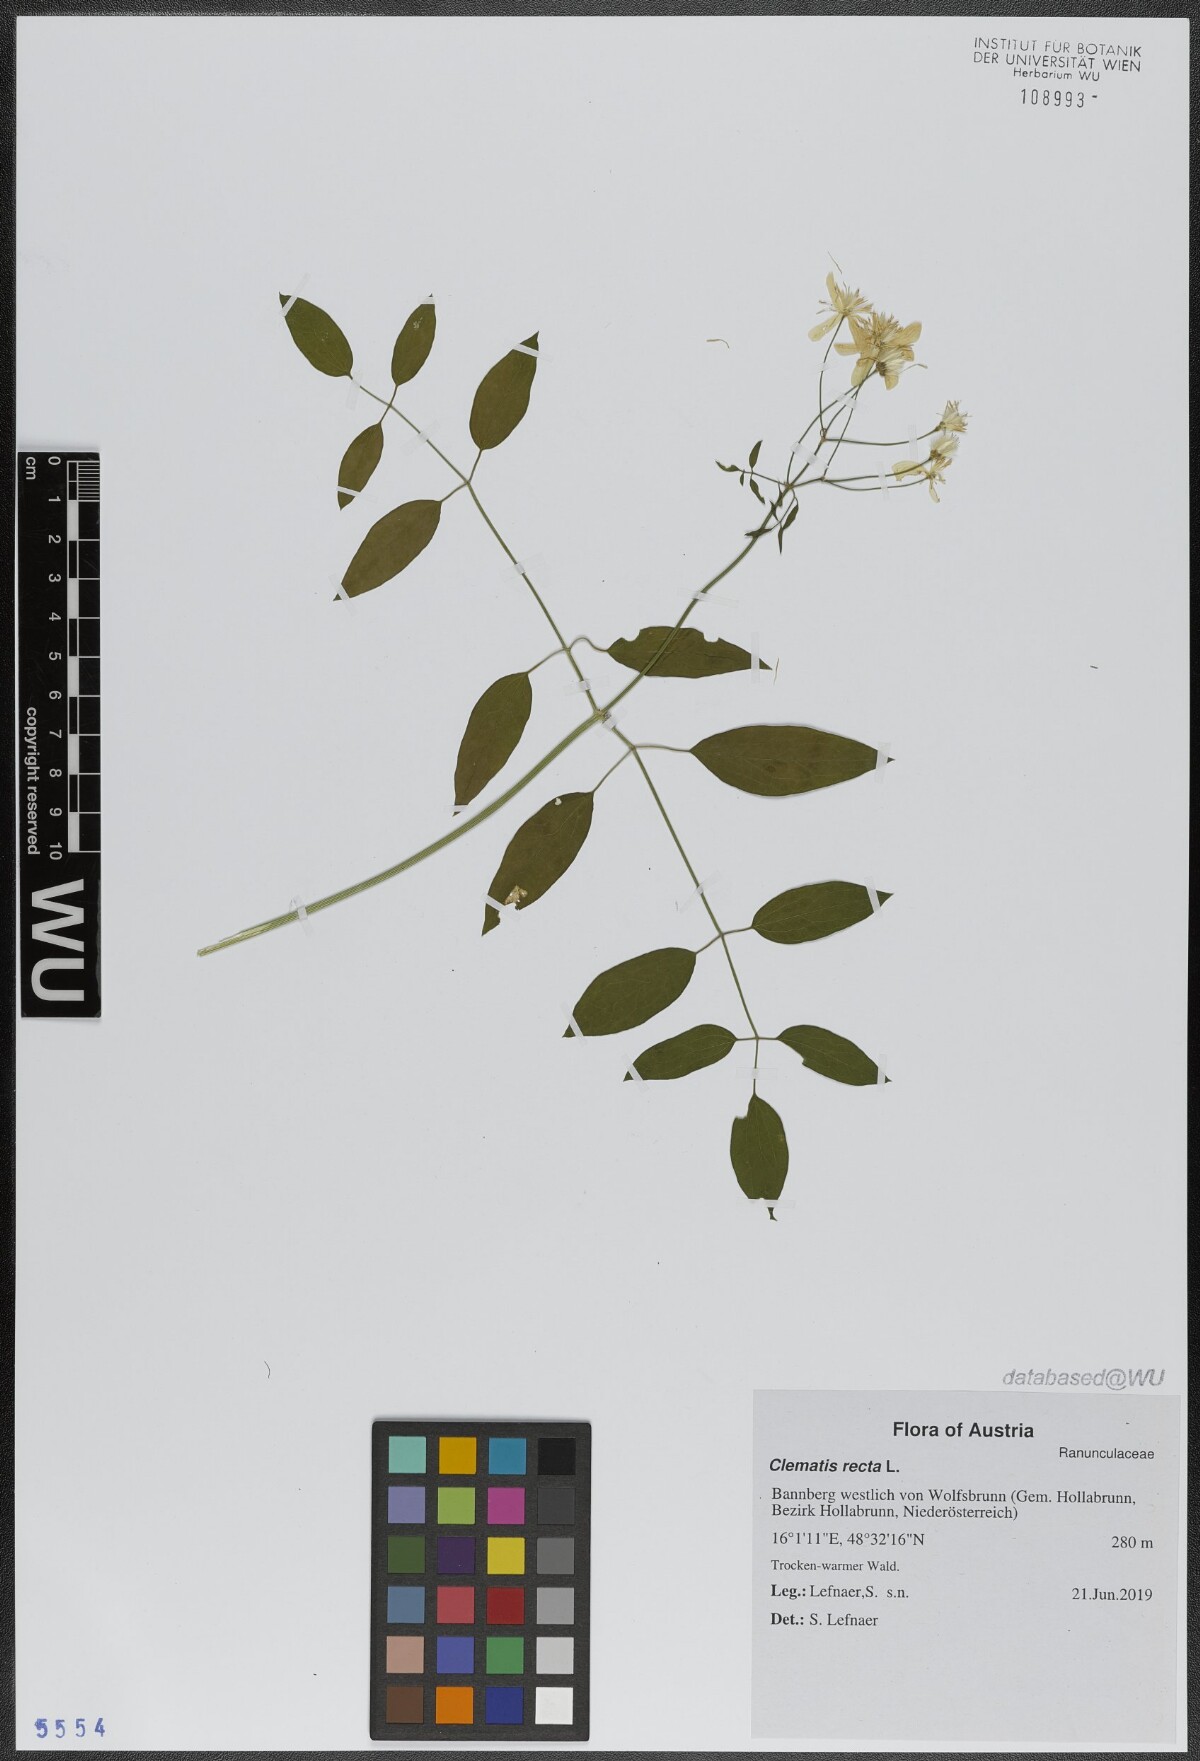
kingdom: Plantae
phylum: Tracheophyta
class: Magnoliopsida
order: Ranunculales
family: Ranunculaceae
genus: Clematis
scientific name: Clematis recta
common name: Ground clematis
